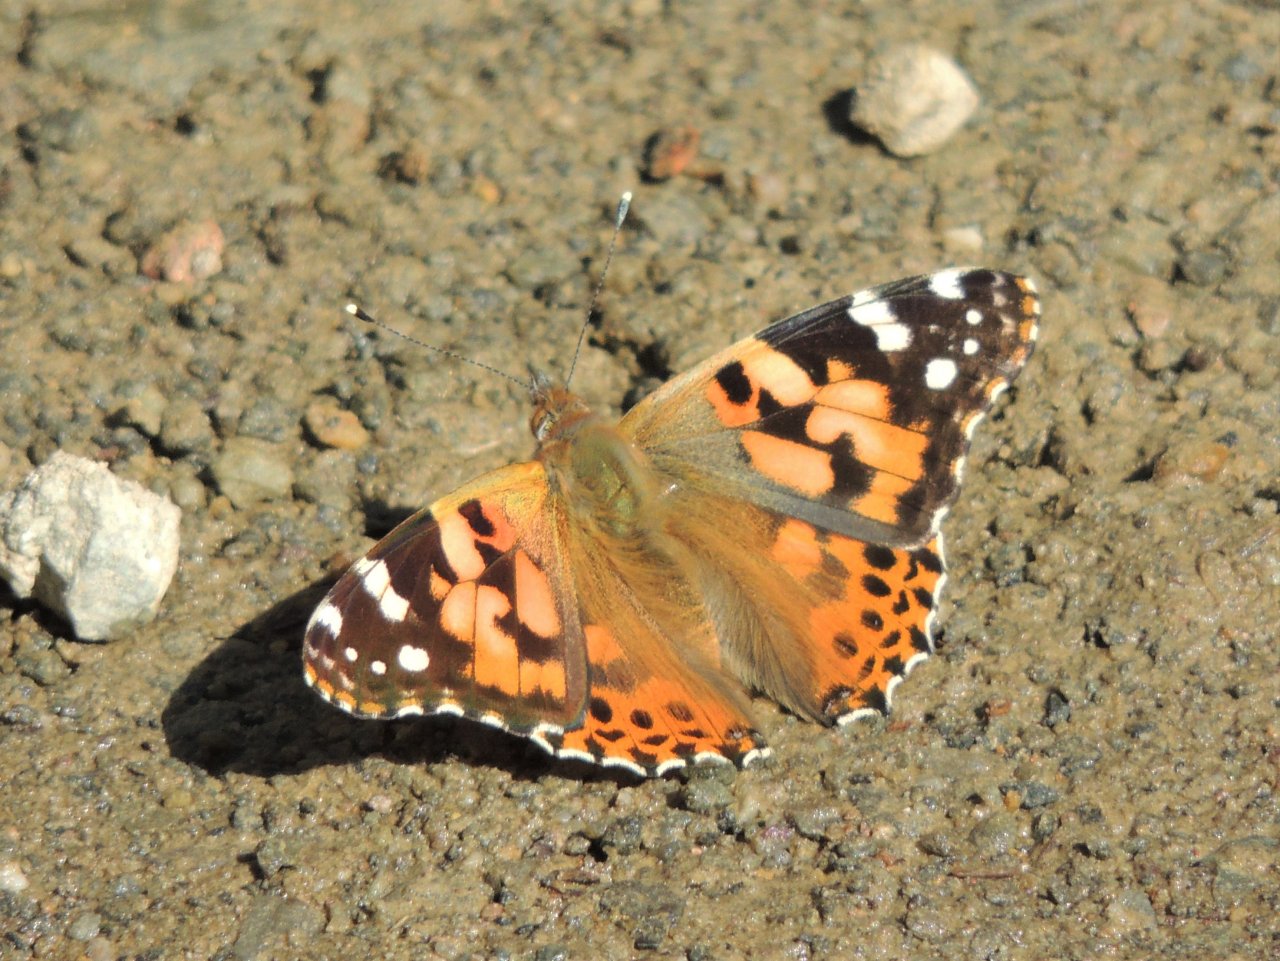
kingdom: Animalia
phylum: Arthropoda
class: Insecta
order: Lepidoptera
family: Nymphalidae
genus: Vanessa
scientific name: Vanessa cardui
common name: Painted Lady
